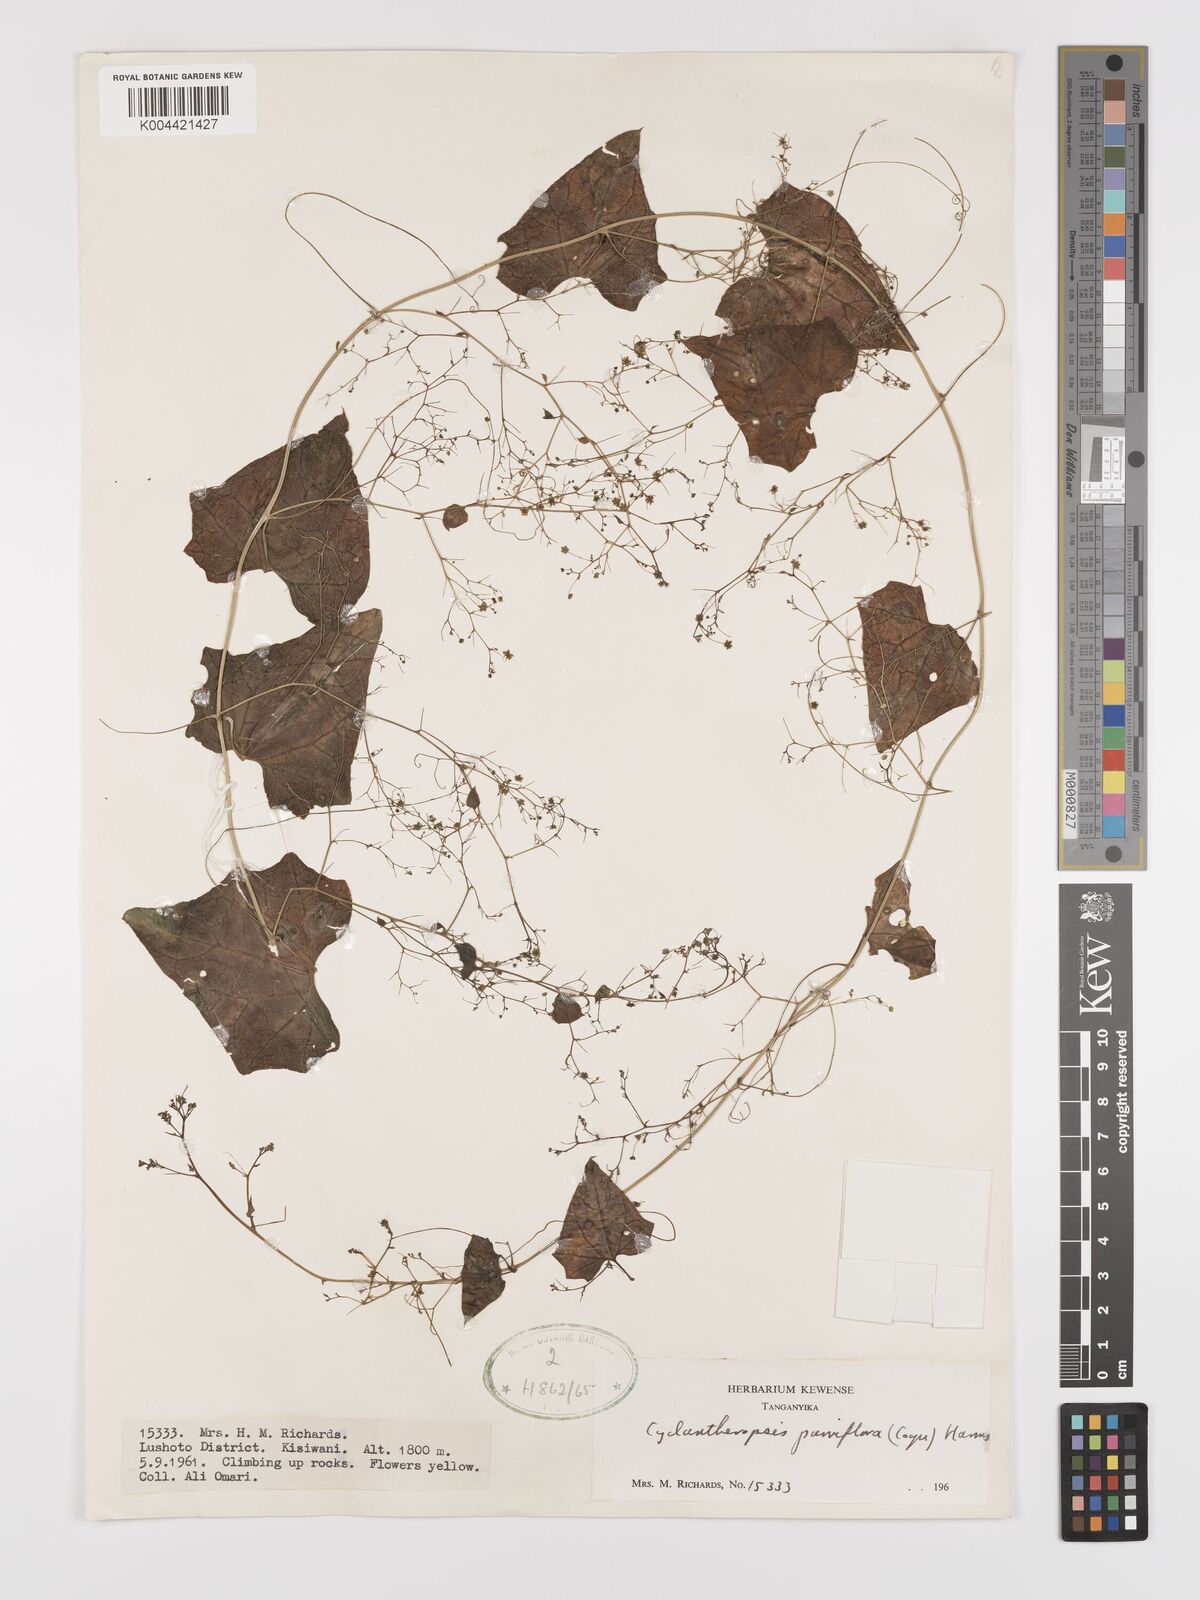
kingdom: Plantae
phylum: Tracheophyta
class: Magnoliopsida
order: Cucurbitales
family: Cucurbitaceae
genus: Cyclantheropsis
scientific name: Cyclantheropsis parviflora
